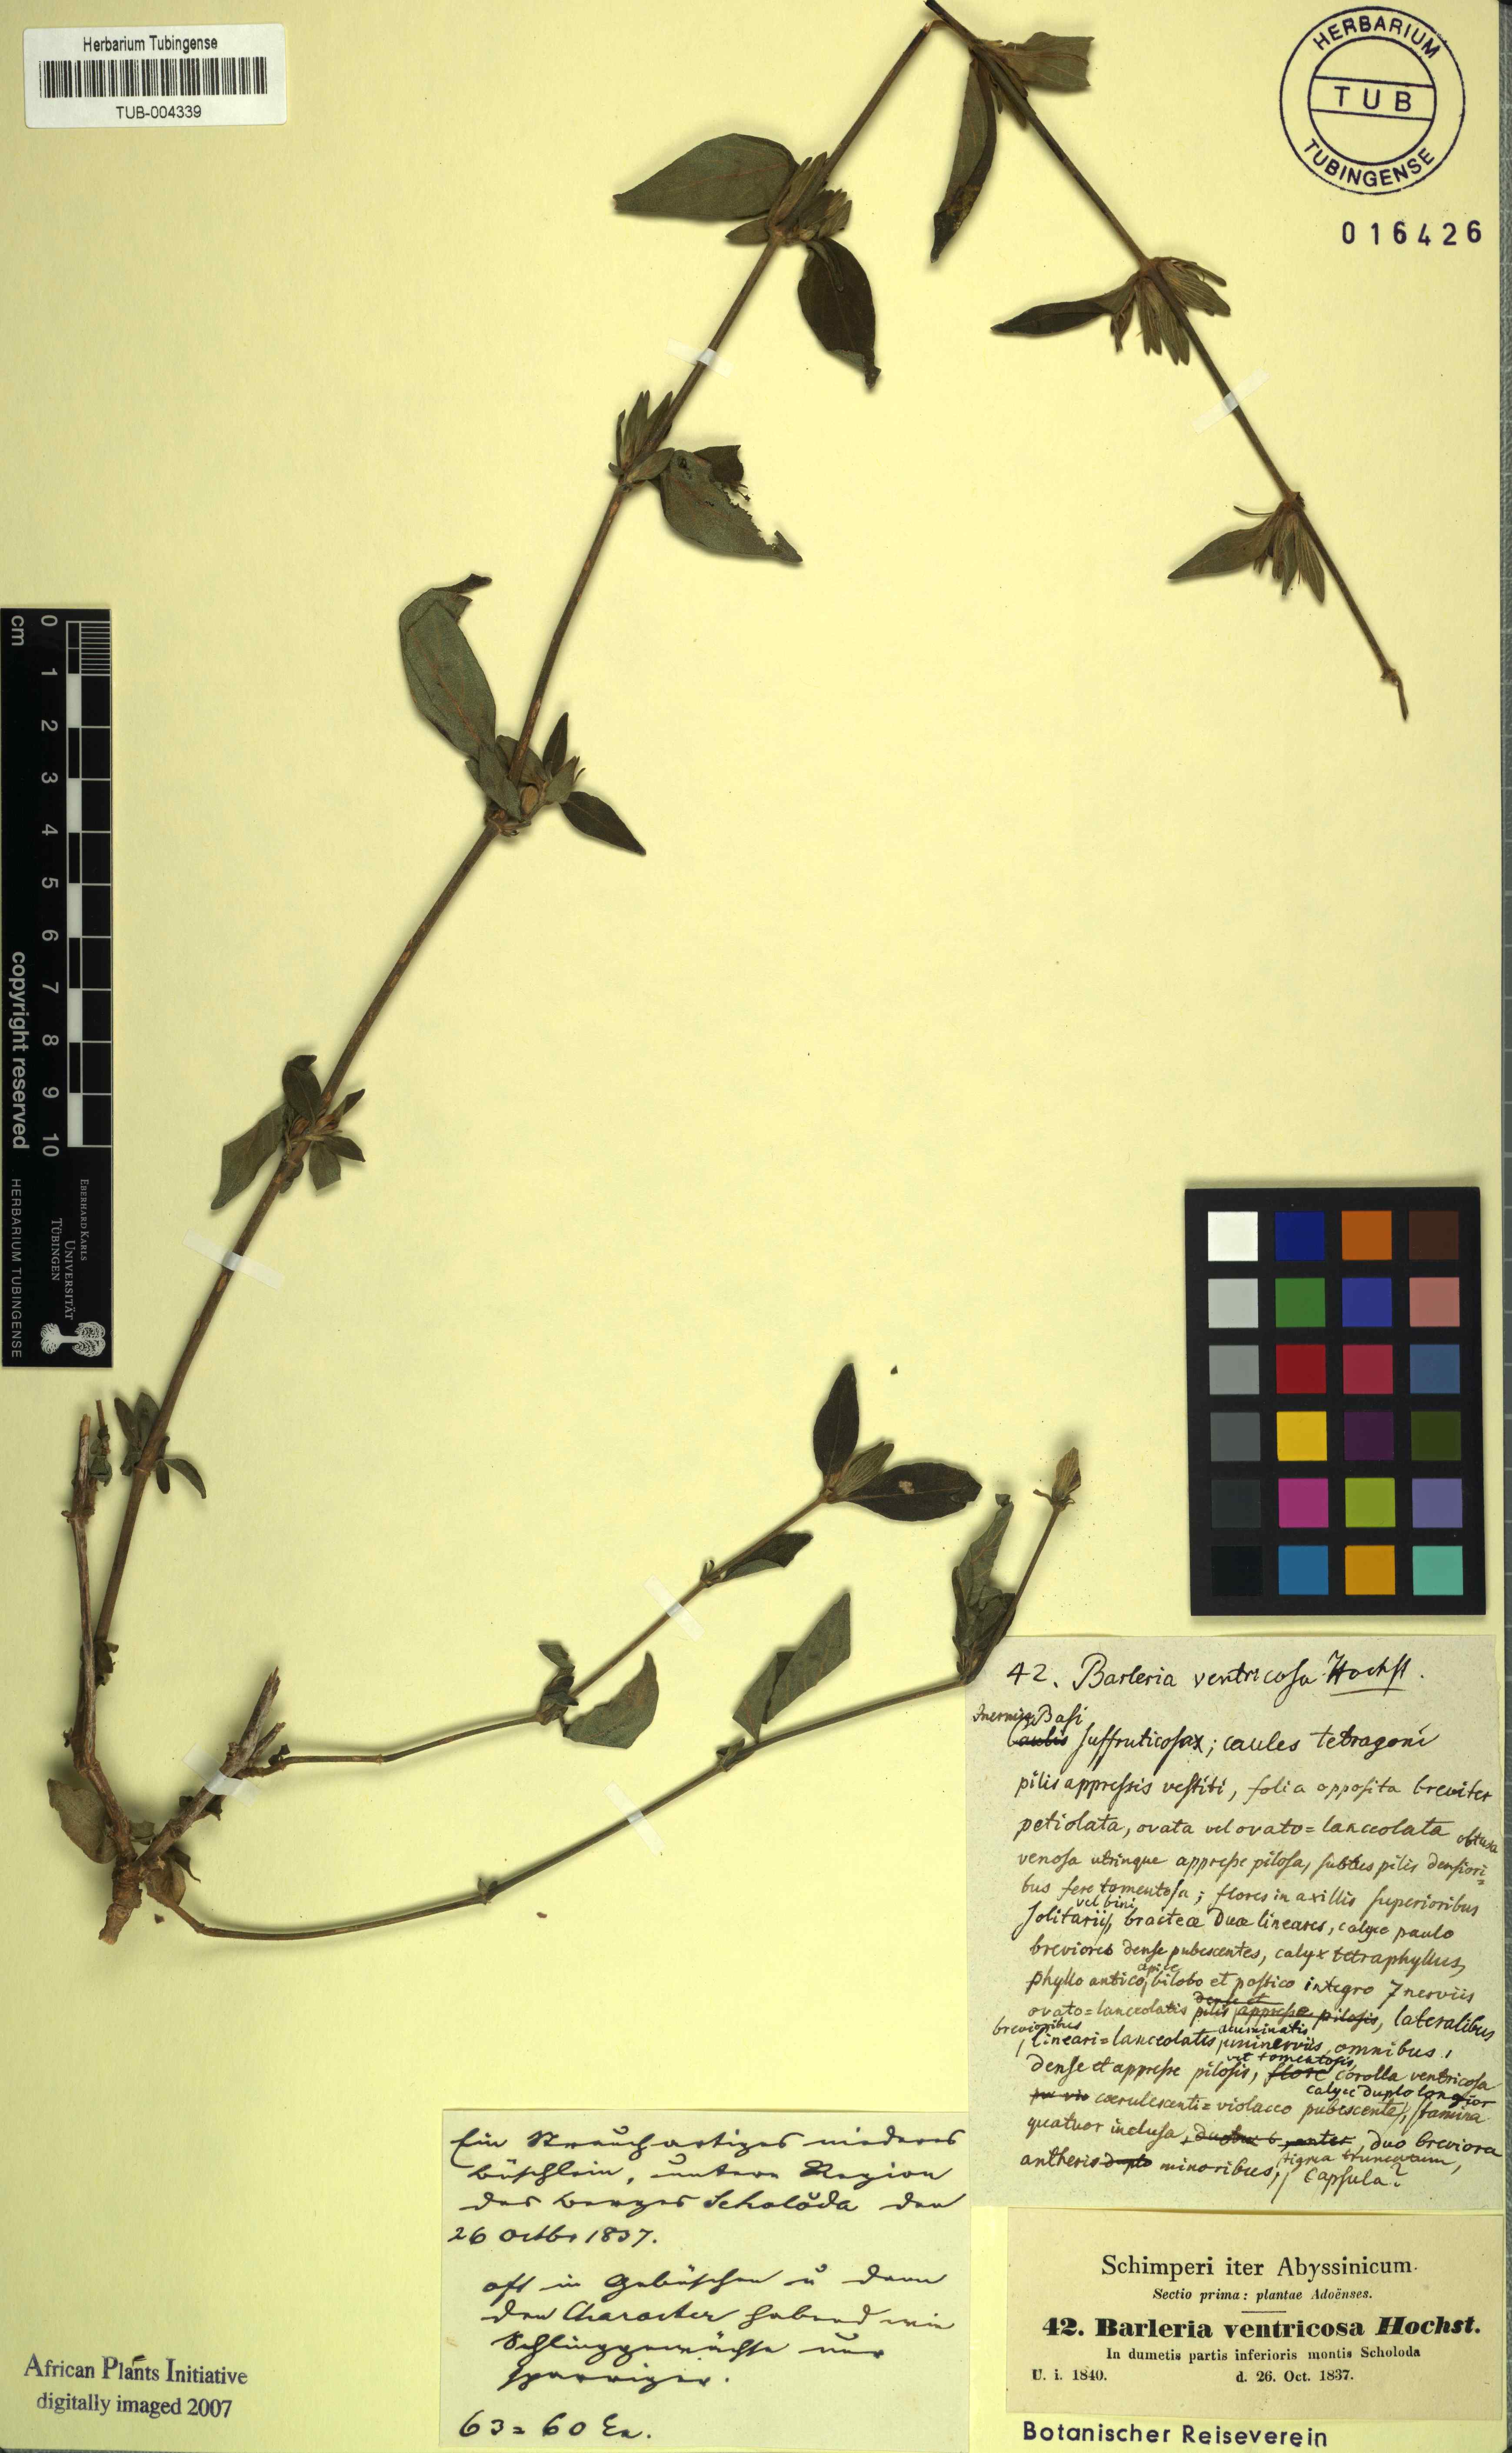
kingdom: Plantae
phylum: Tracheophyta
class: Magnoliopsida
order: Lamiales
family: Acanthaceae
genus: Barleria
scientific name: Barleria ventricosa
